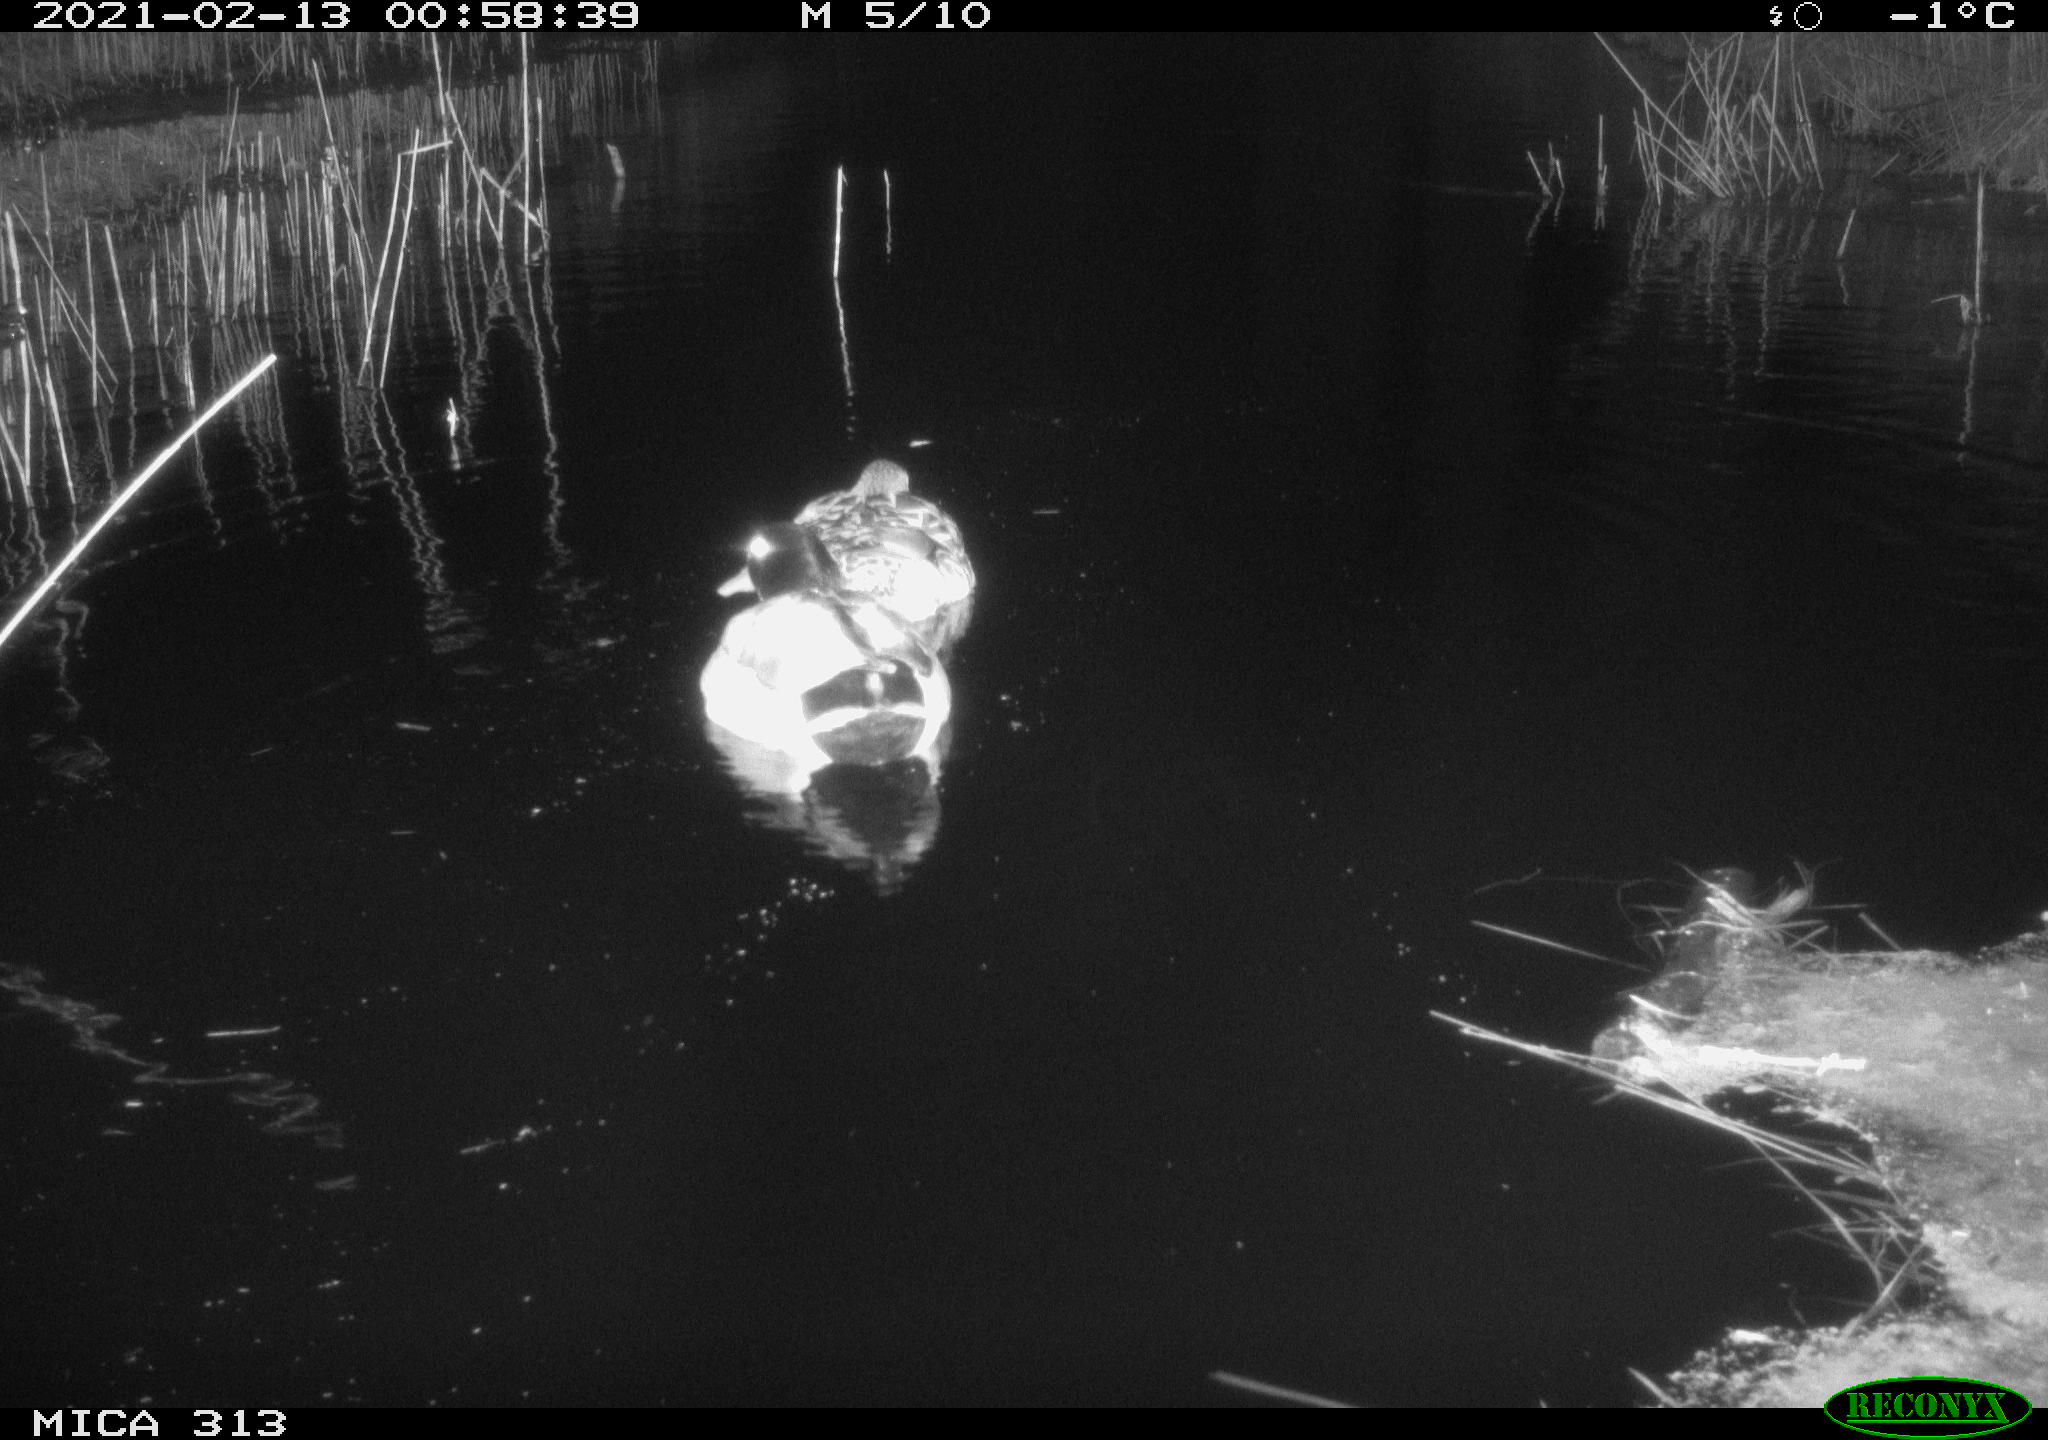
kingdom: Animalia
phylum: Chordata
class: Aves
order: Anseriformes
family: Anatidae
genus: Anas
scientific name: Anas
